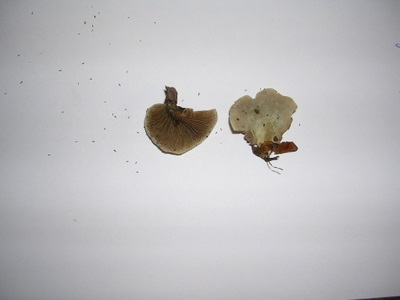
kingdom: Fungi
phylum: Basidiomycota
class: Agaricomycetes
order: Agaricales
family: Crepidotaceae
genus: Crepidotus
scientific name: Crepidotus autochthonus
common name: skæv muslingesvamp
